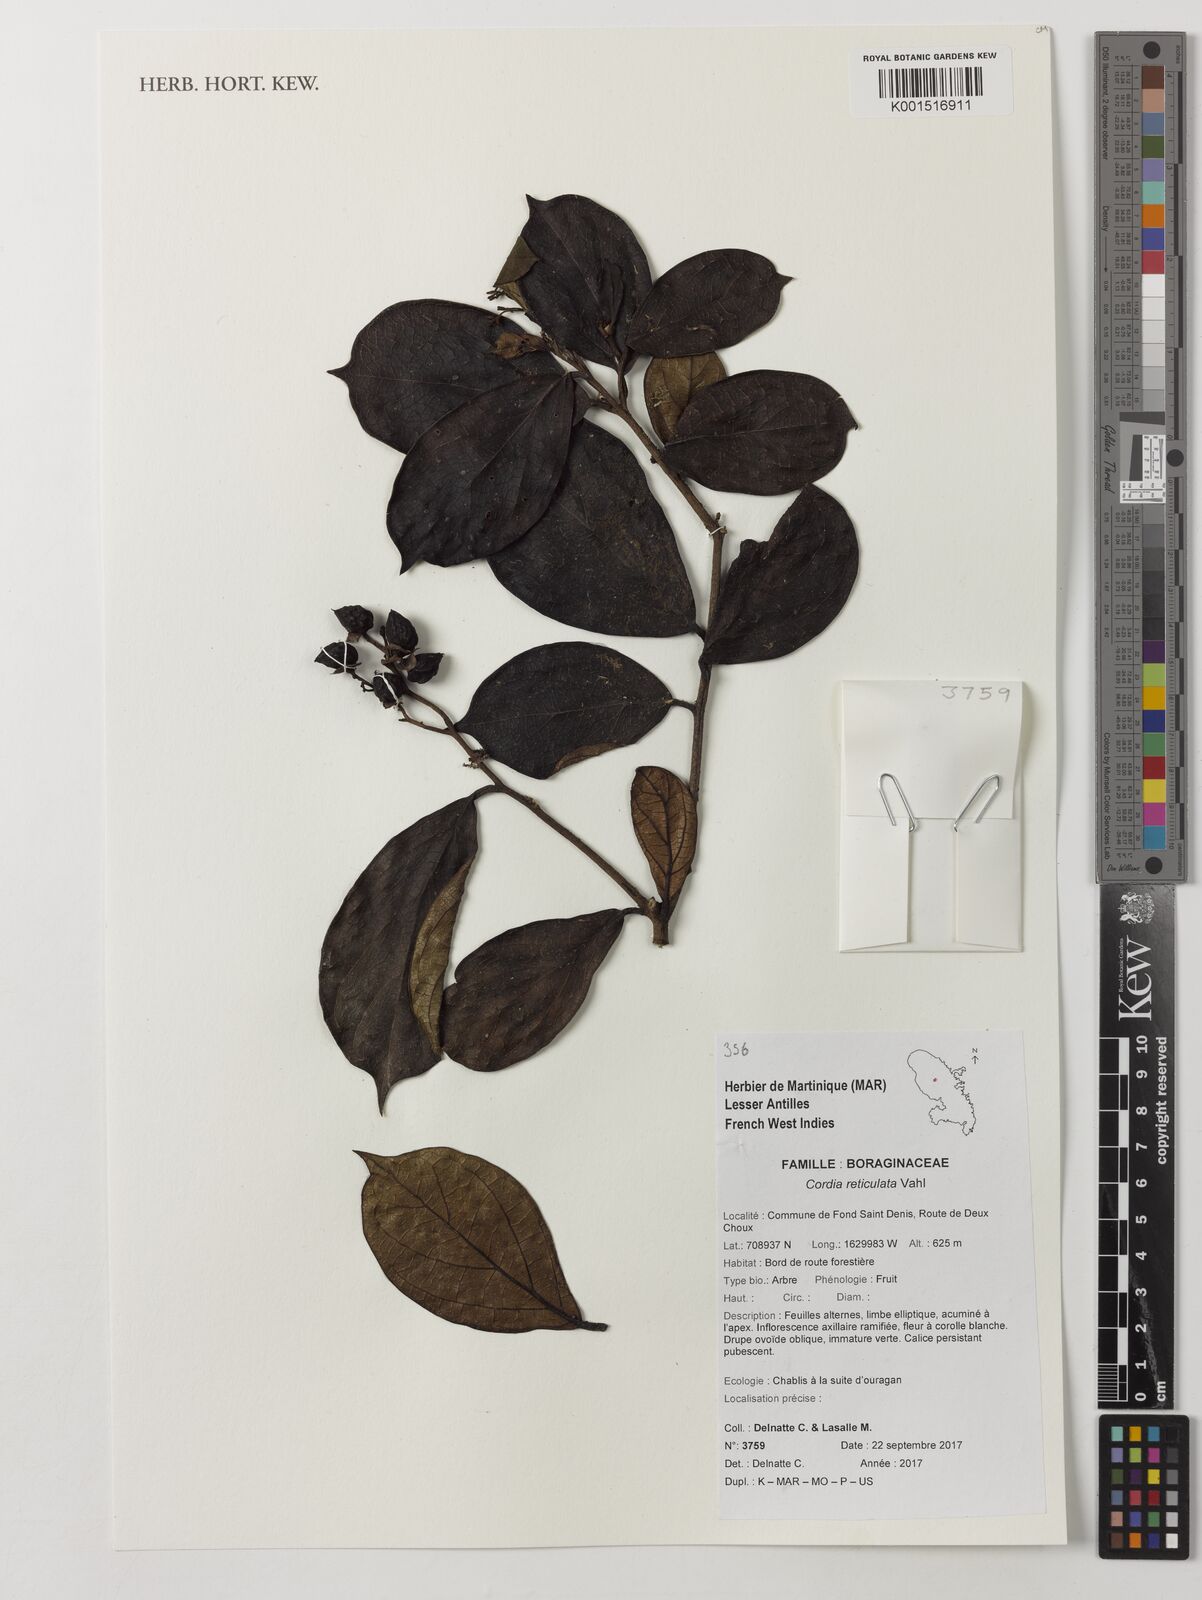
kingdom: Plantae
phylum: Tracheophyta
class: Magnoliopsida
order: Boraginales
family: Cordiaceae
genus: Cordia
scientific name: Cordia elliptica
